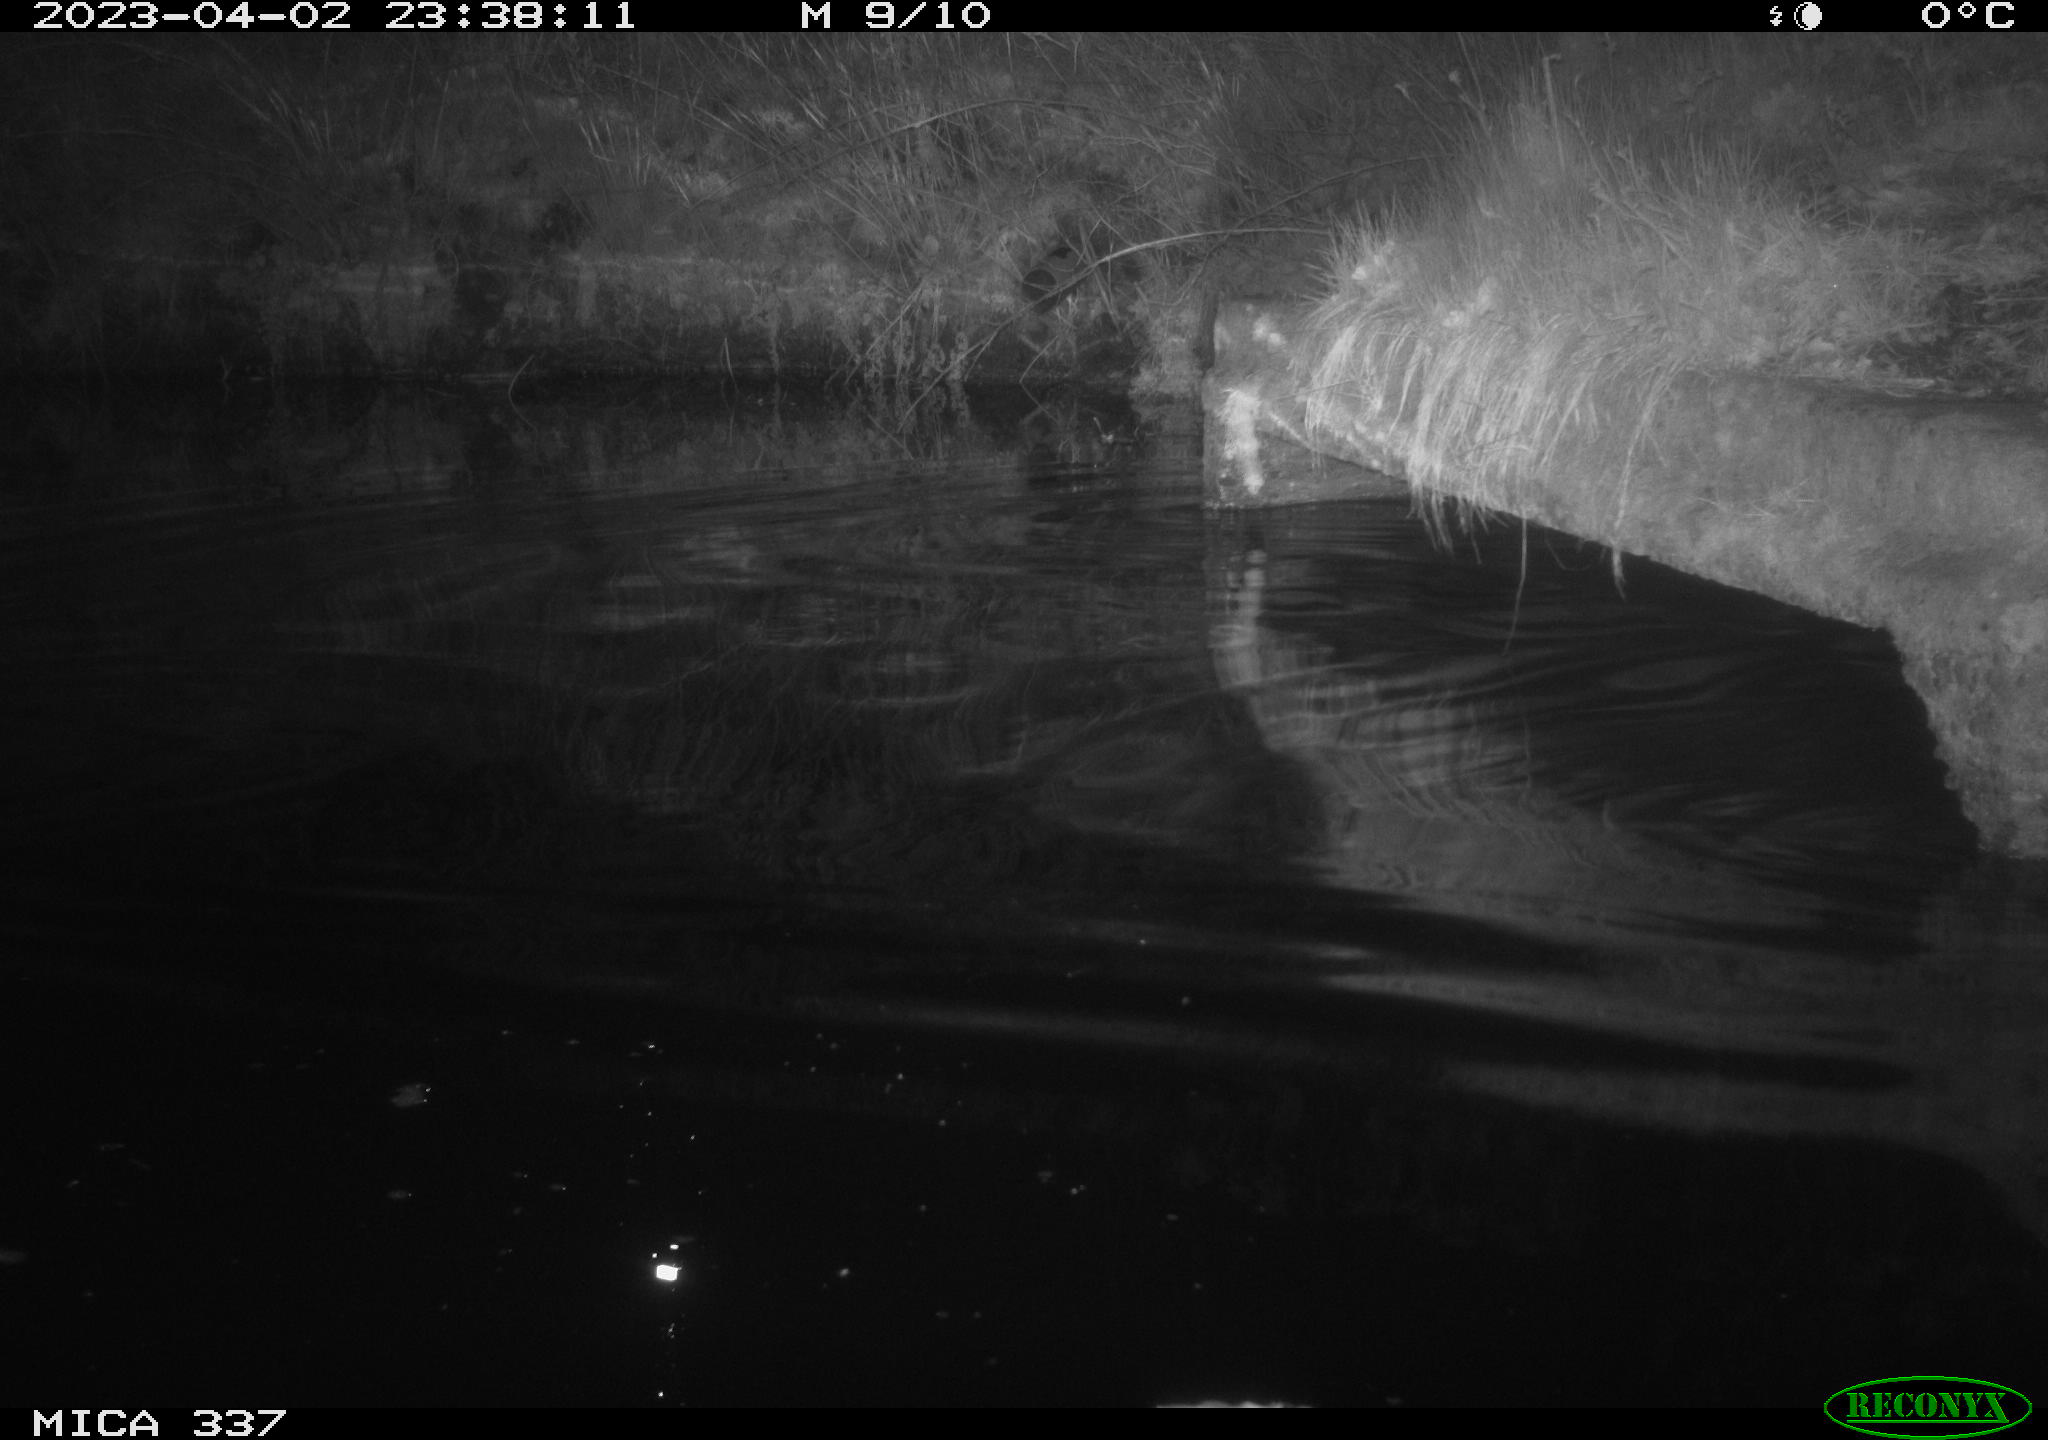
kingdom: Animalia
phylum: Chordata
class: Aves
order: Anseriformes
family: Anatidae
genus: Anas
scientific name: Anas
